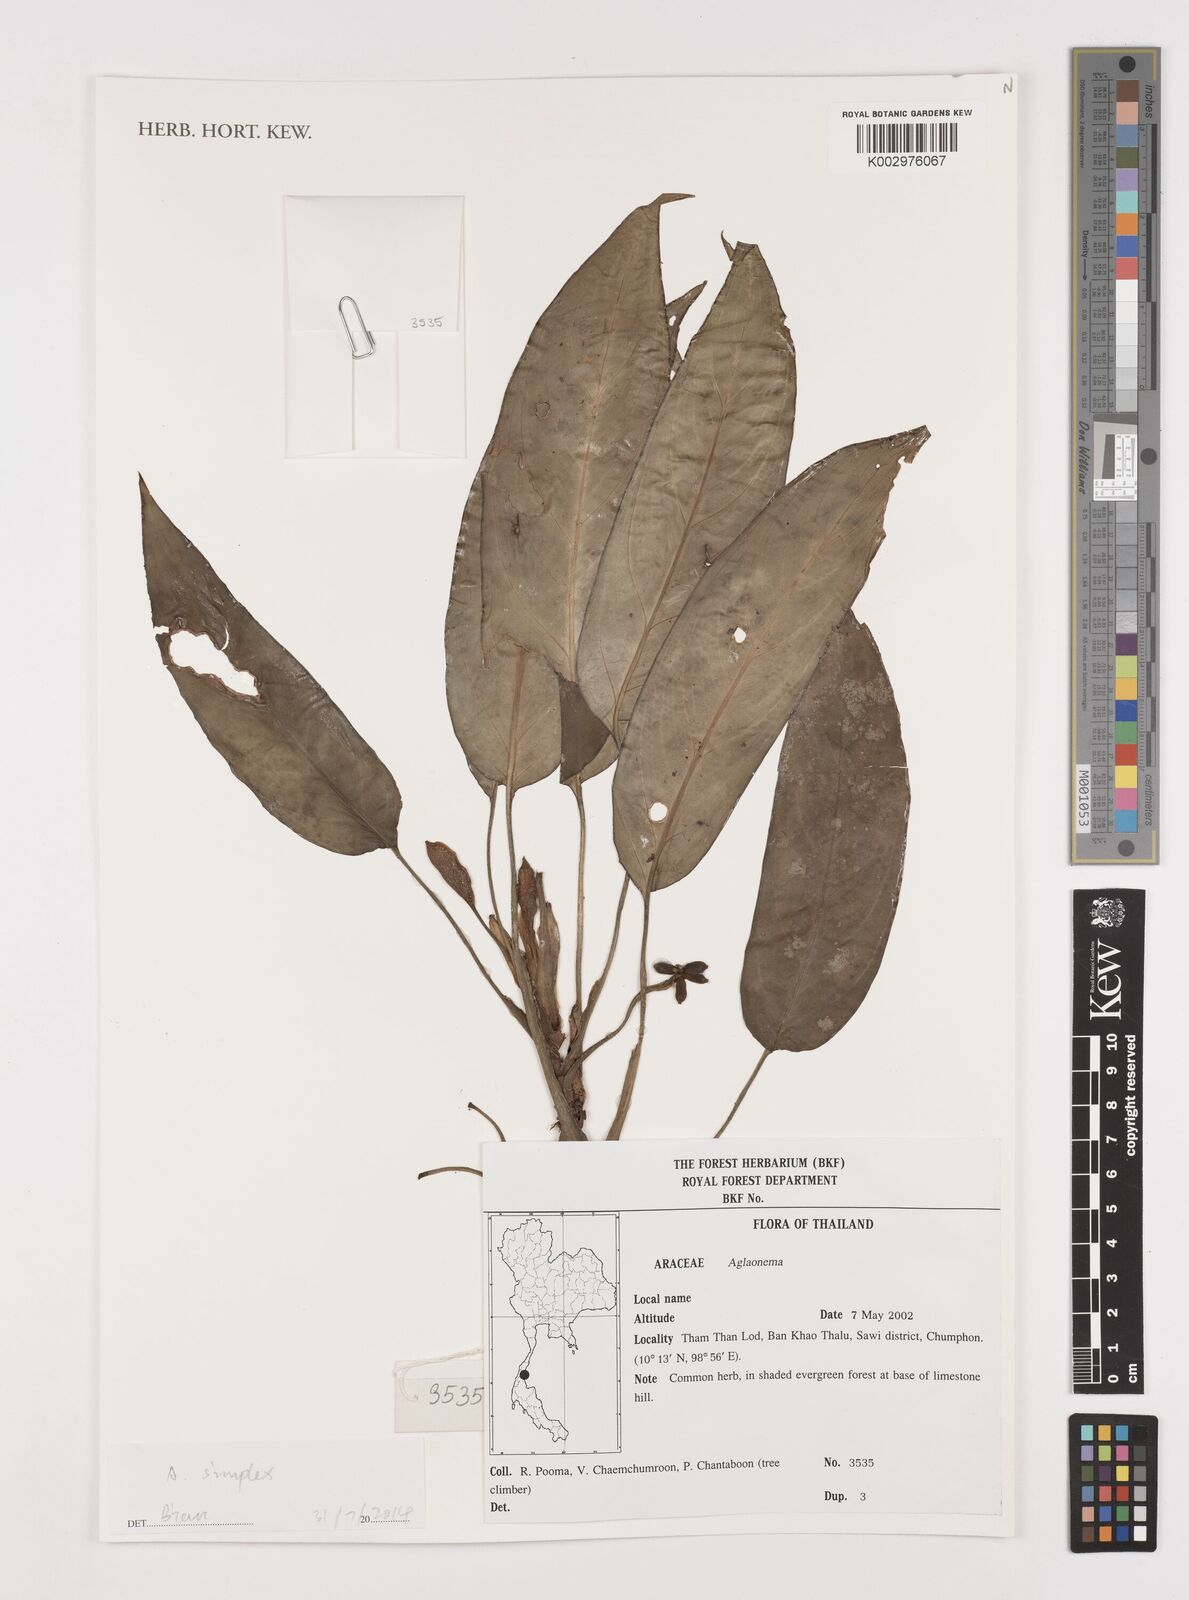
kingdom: Plantae
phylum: Tracheophyta
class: Liliopsida
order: Alismatales
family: Araceae
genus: Aglaonema
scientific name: Aglaonema simplex
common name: Malayan-sword
